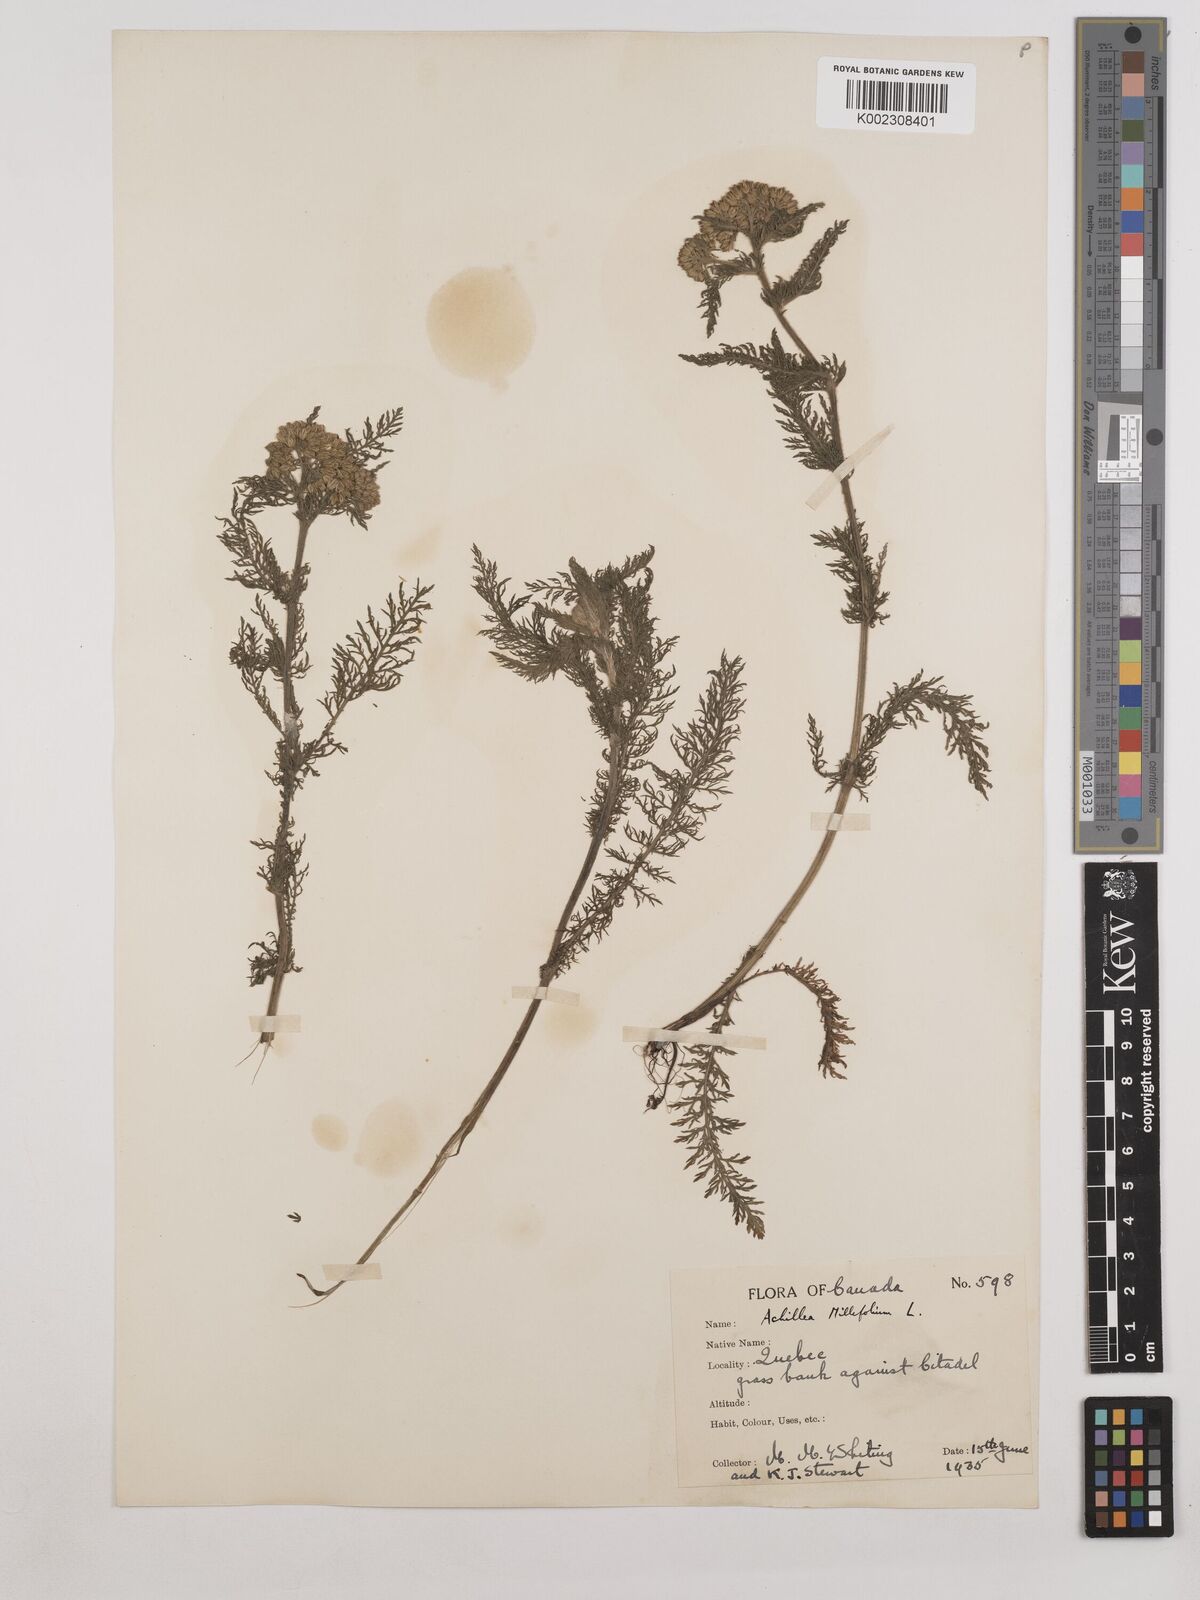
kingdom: Plantae
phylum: Tracheophyta
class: Magnoliopsida
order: Asterales
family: Asteraceae
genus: Achillea
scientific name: Achillea millefolium
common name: Yarrow
